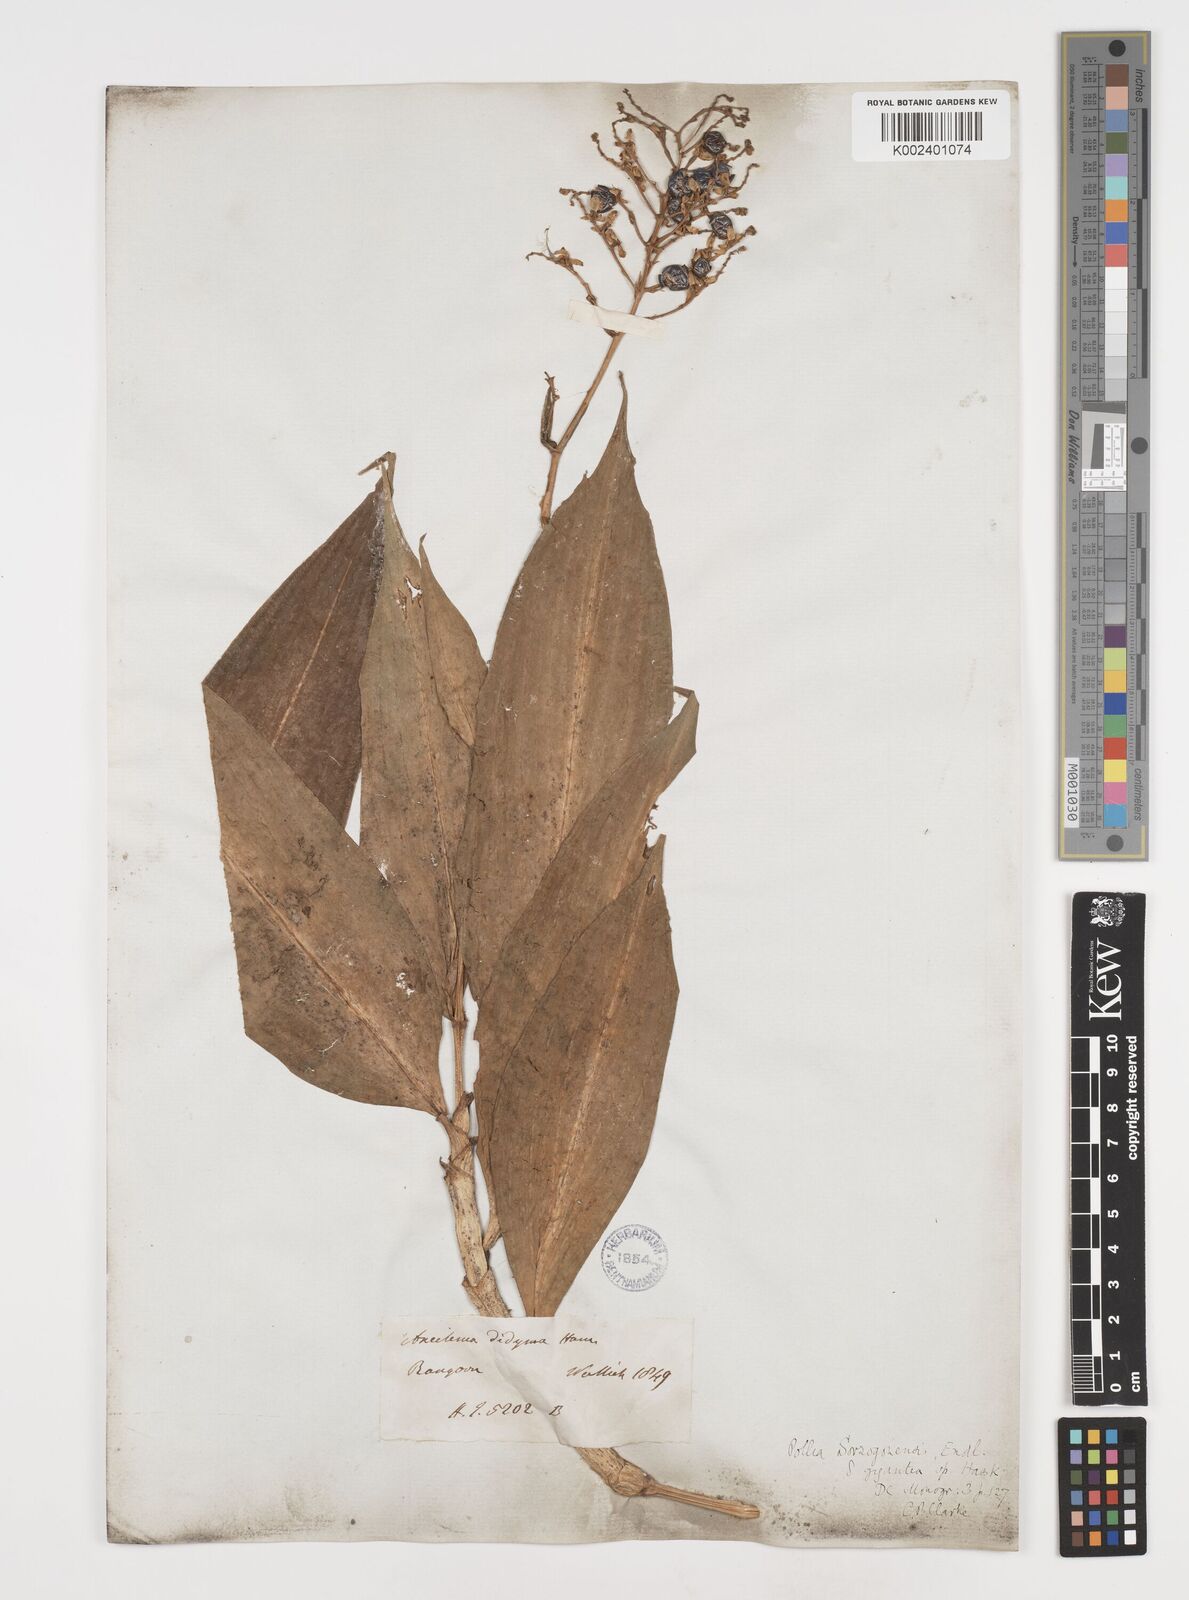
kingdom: Plantae
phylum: Tracheophyta
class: Liliopsida
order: Commelinales
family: Commelinaceae
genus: Pollia
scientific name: Pollia secundiflora
